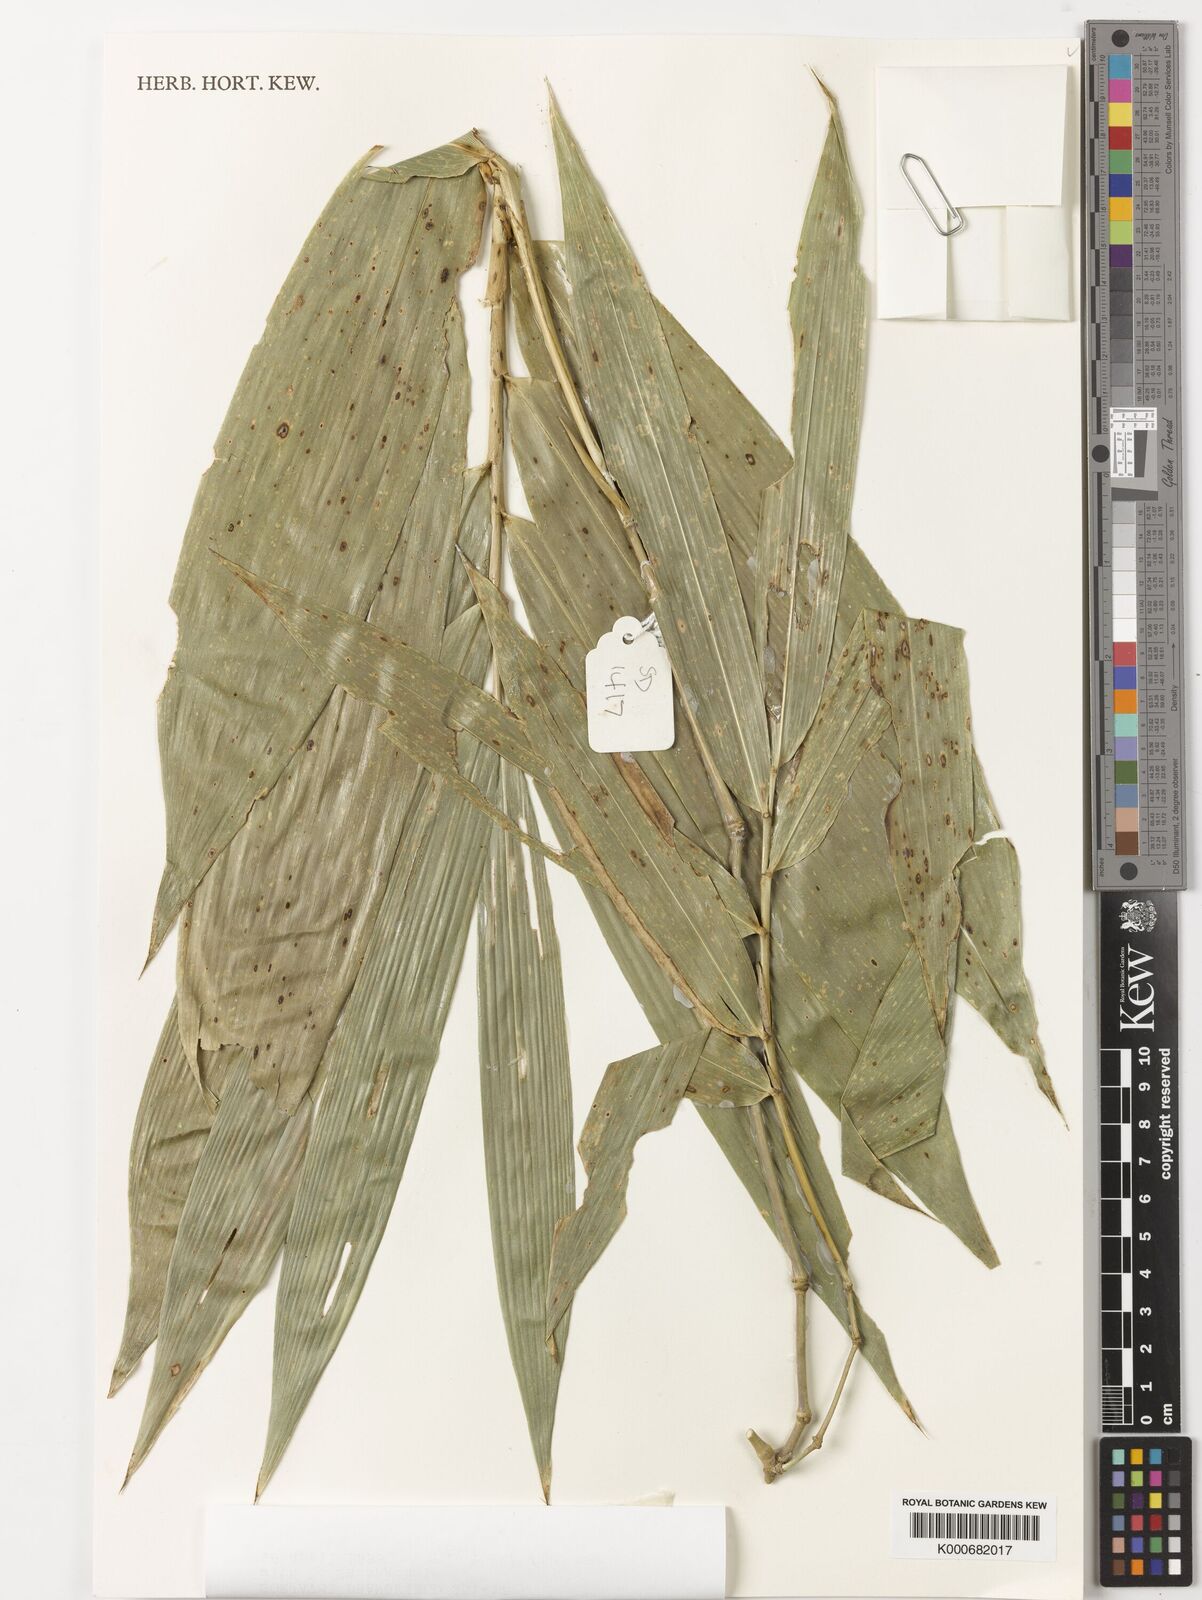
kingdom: Plantae
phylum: Tracheophyta
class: Liliopsida
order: Poales
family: Poaceae
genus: Dinochloa
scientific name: Dinochloa malayana
